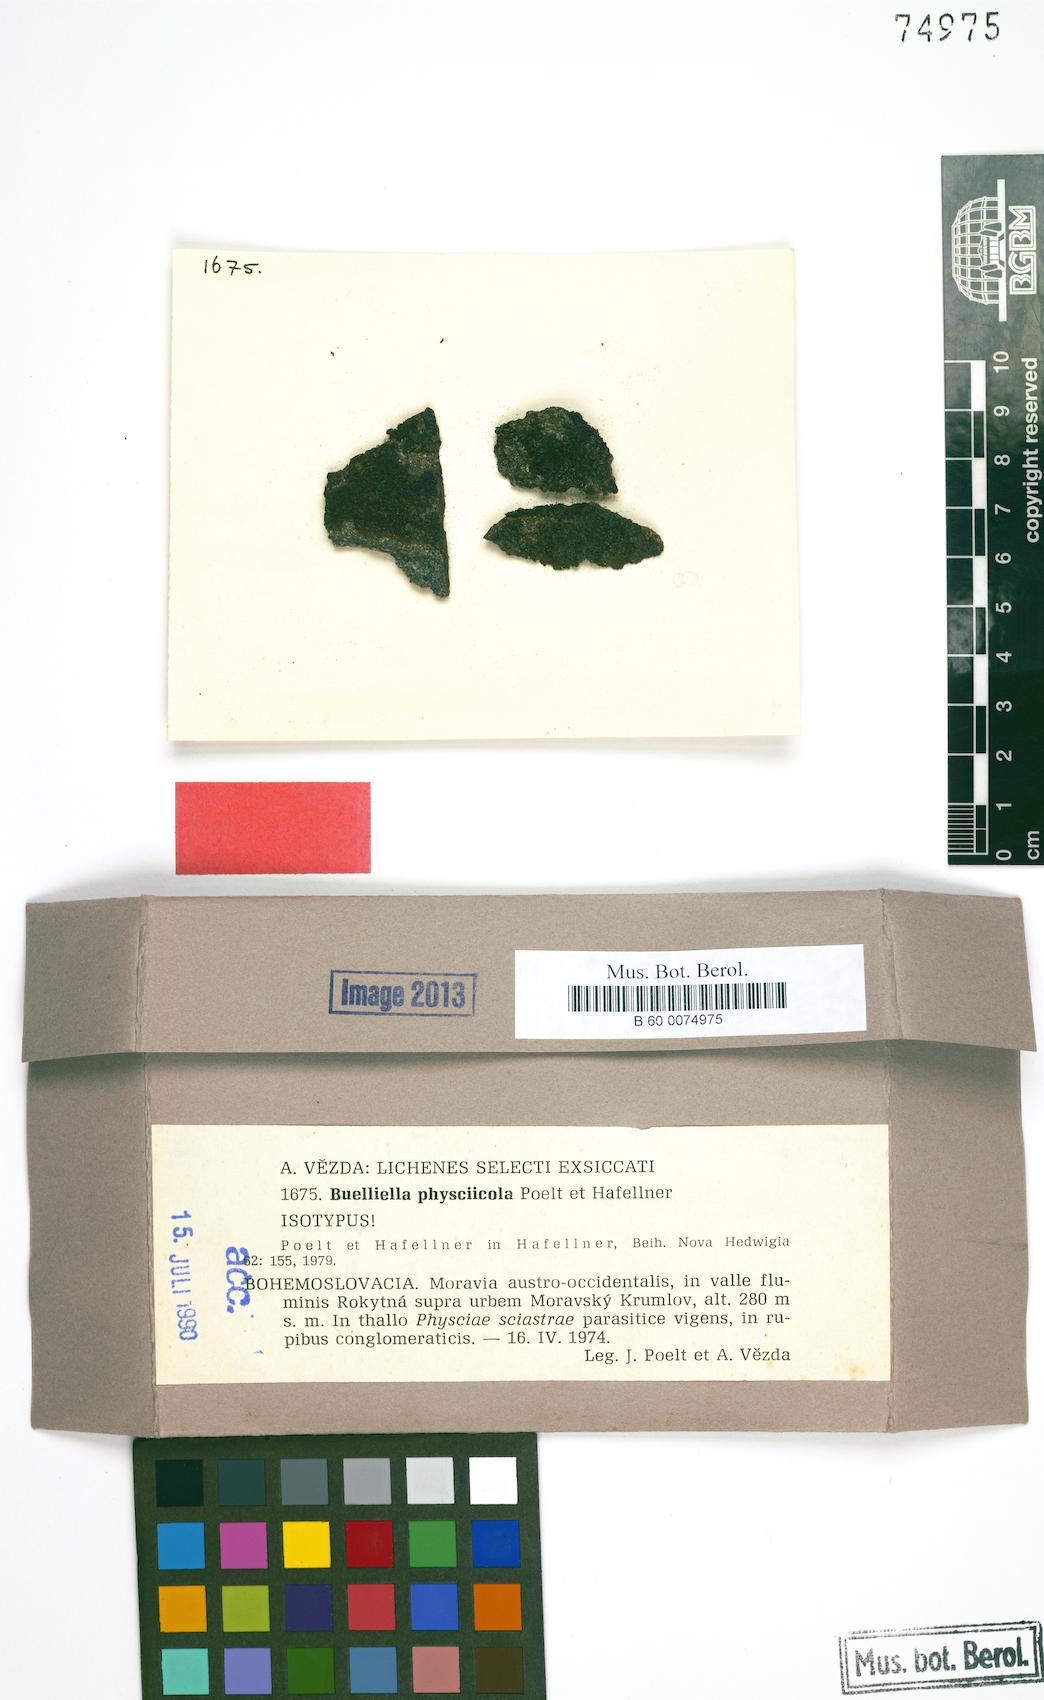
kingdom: Fungi
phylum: Ascomycota
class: Dothideomycetes
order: Dothideales
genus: Buelliella
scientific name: Buelliella physciicola
